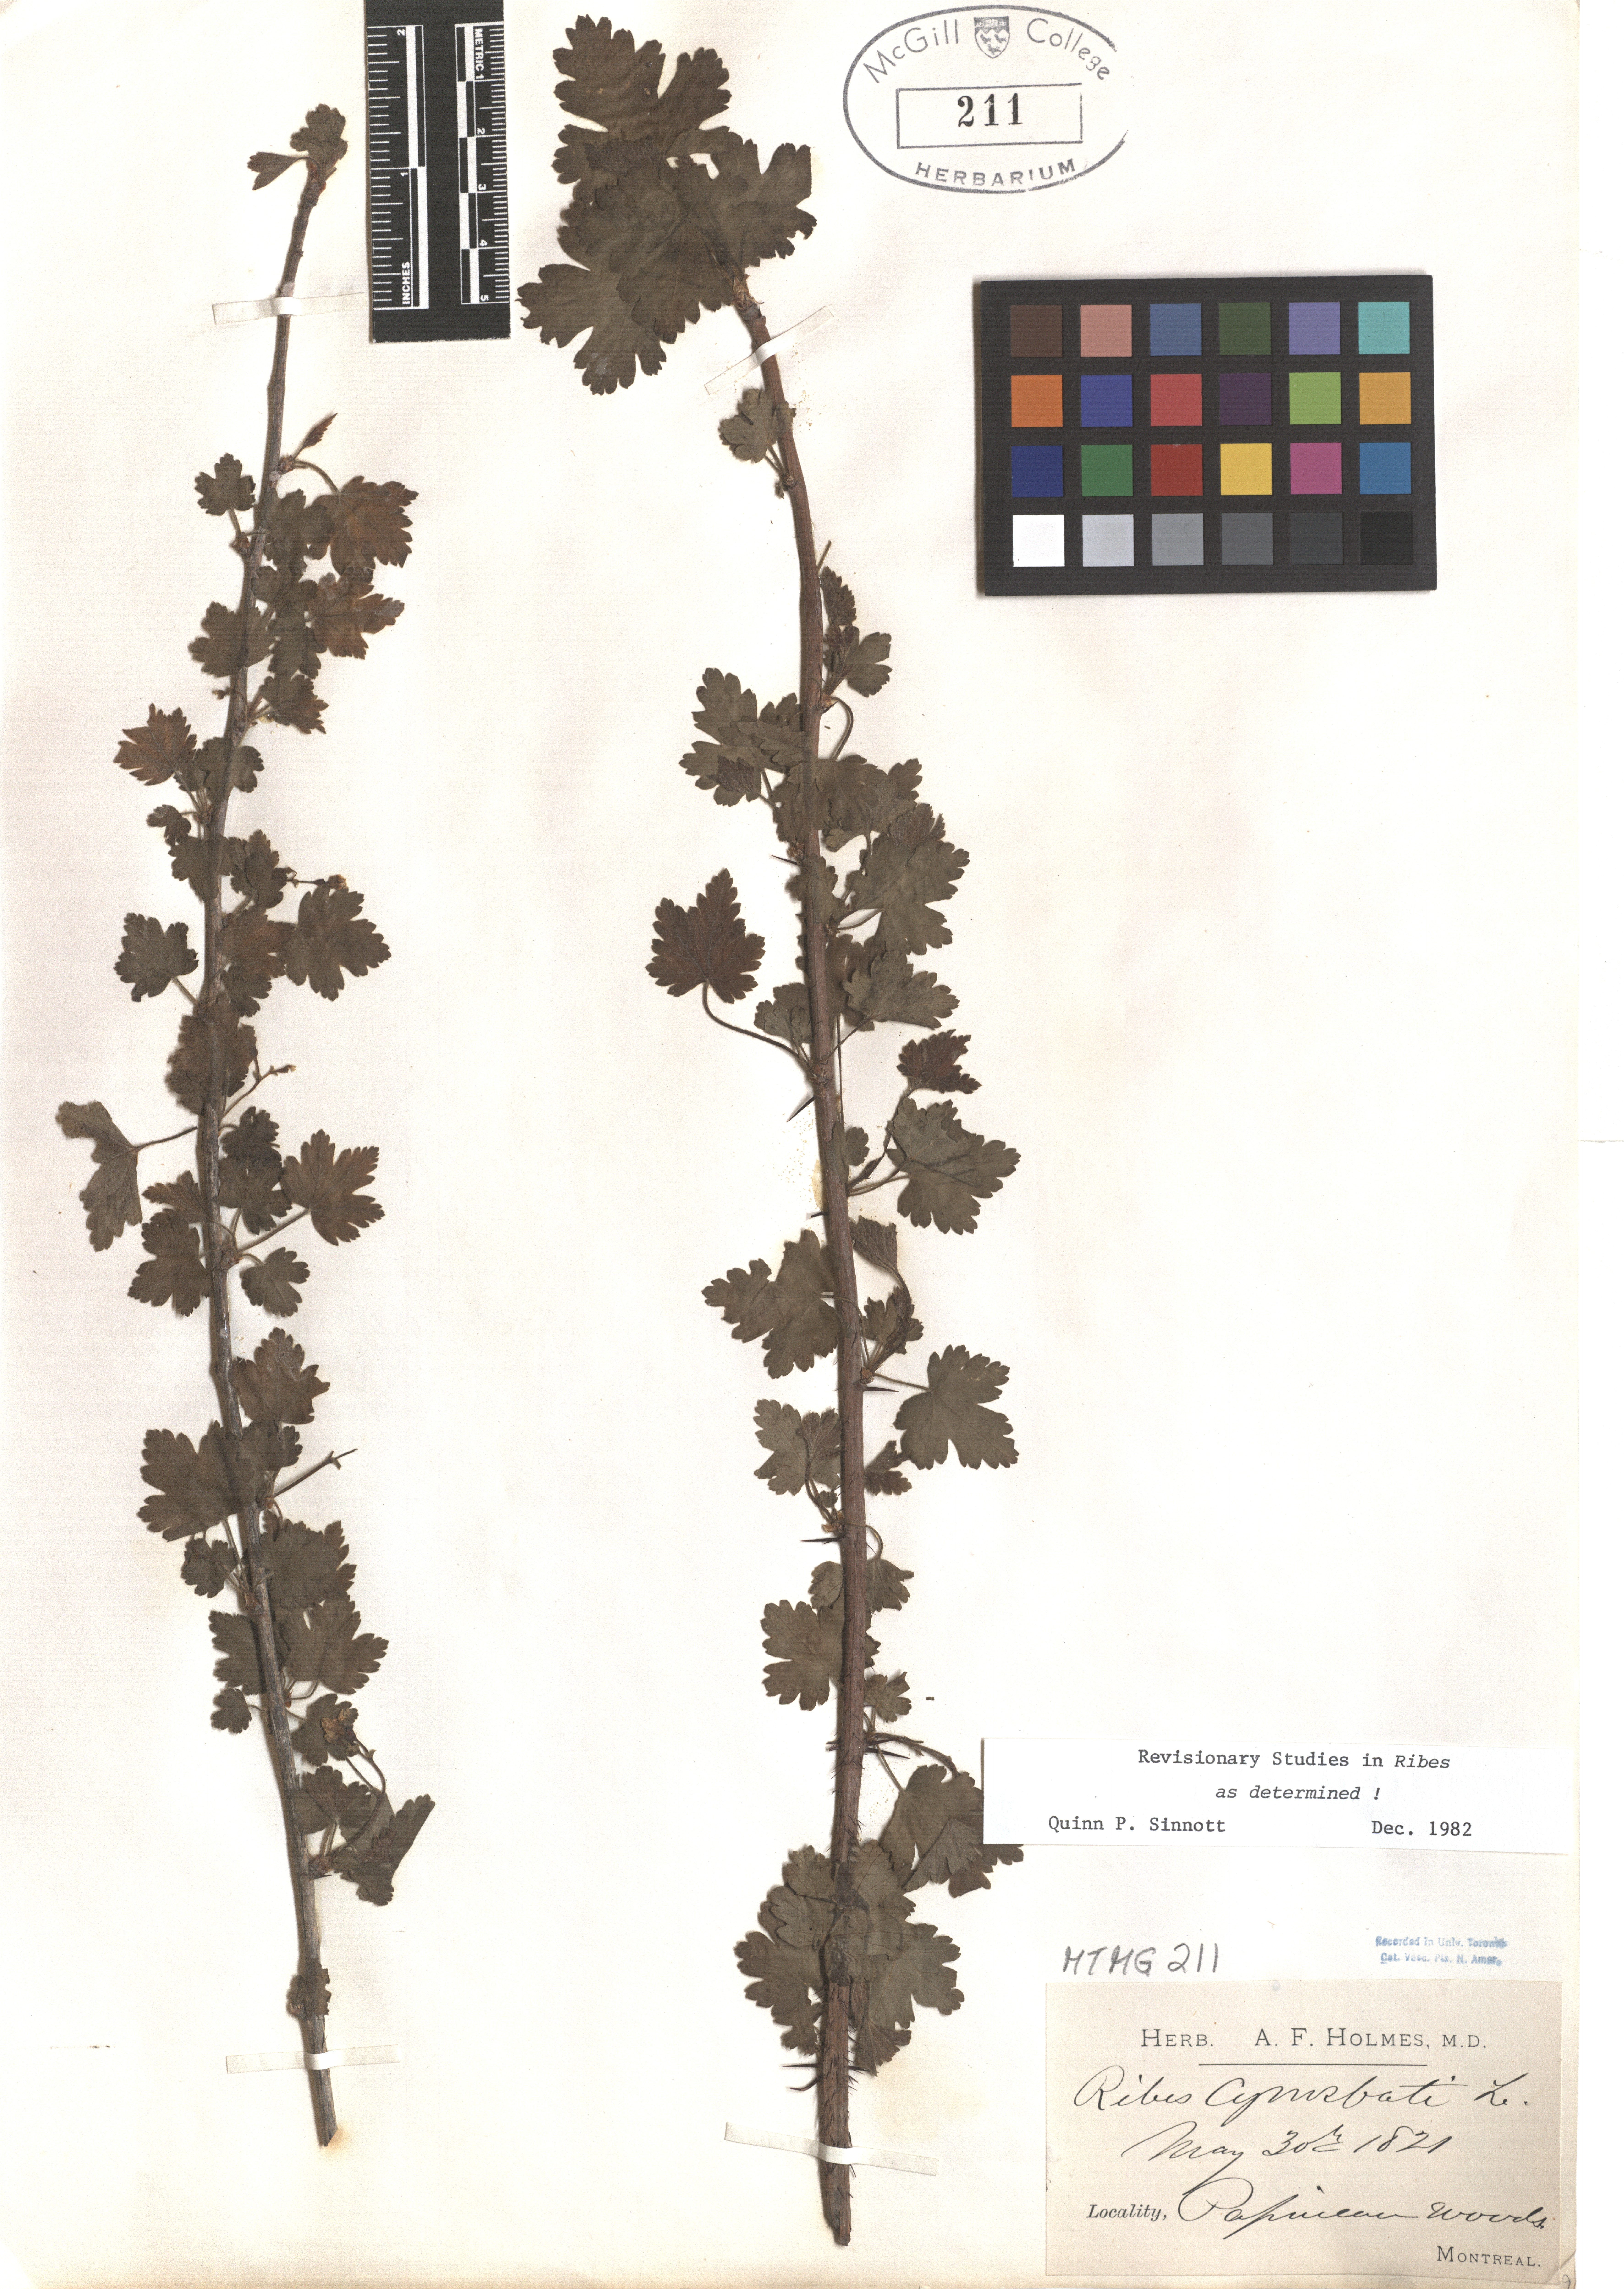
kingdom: Plantae
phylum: Tracheophyta
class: Magnoliopsida
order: Saxifragales
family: Grossulariaceae
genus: Ribes
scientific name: Ribes cynosbati
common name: American gooseberry
